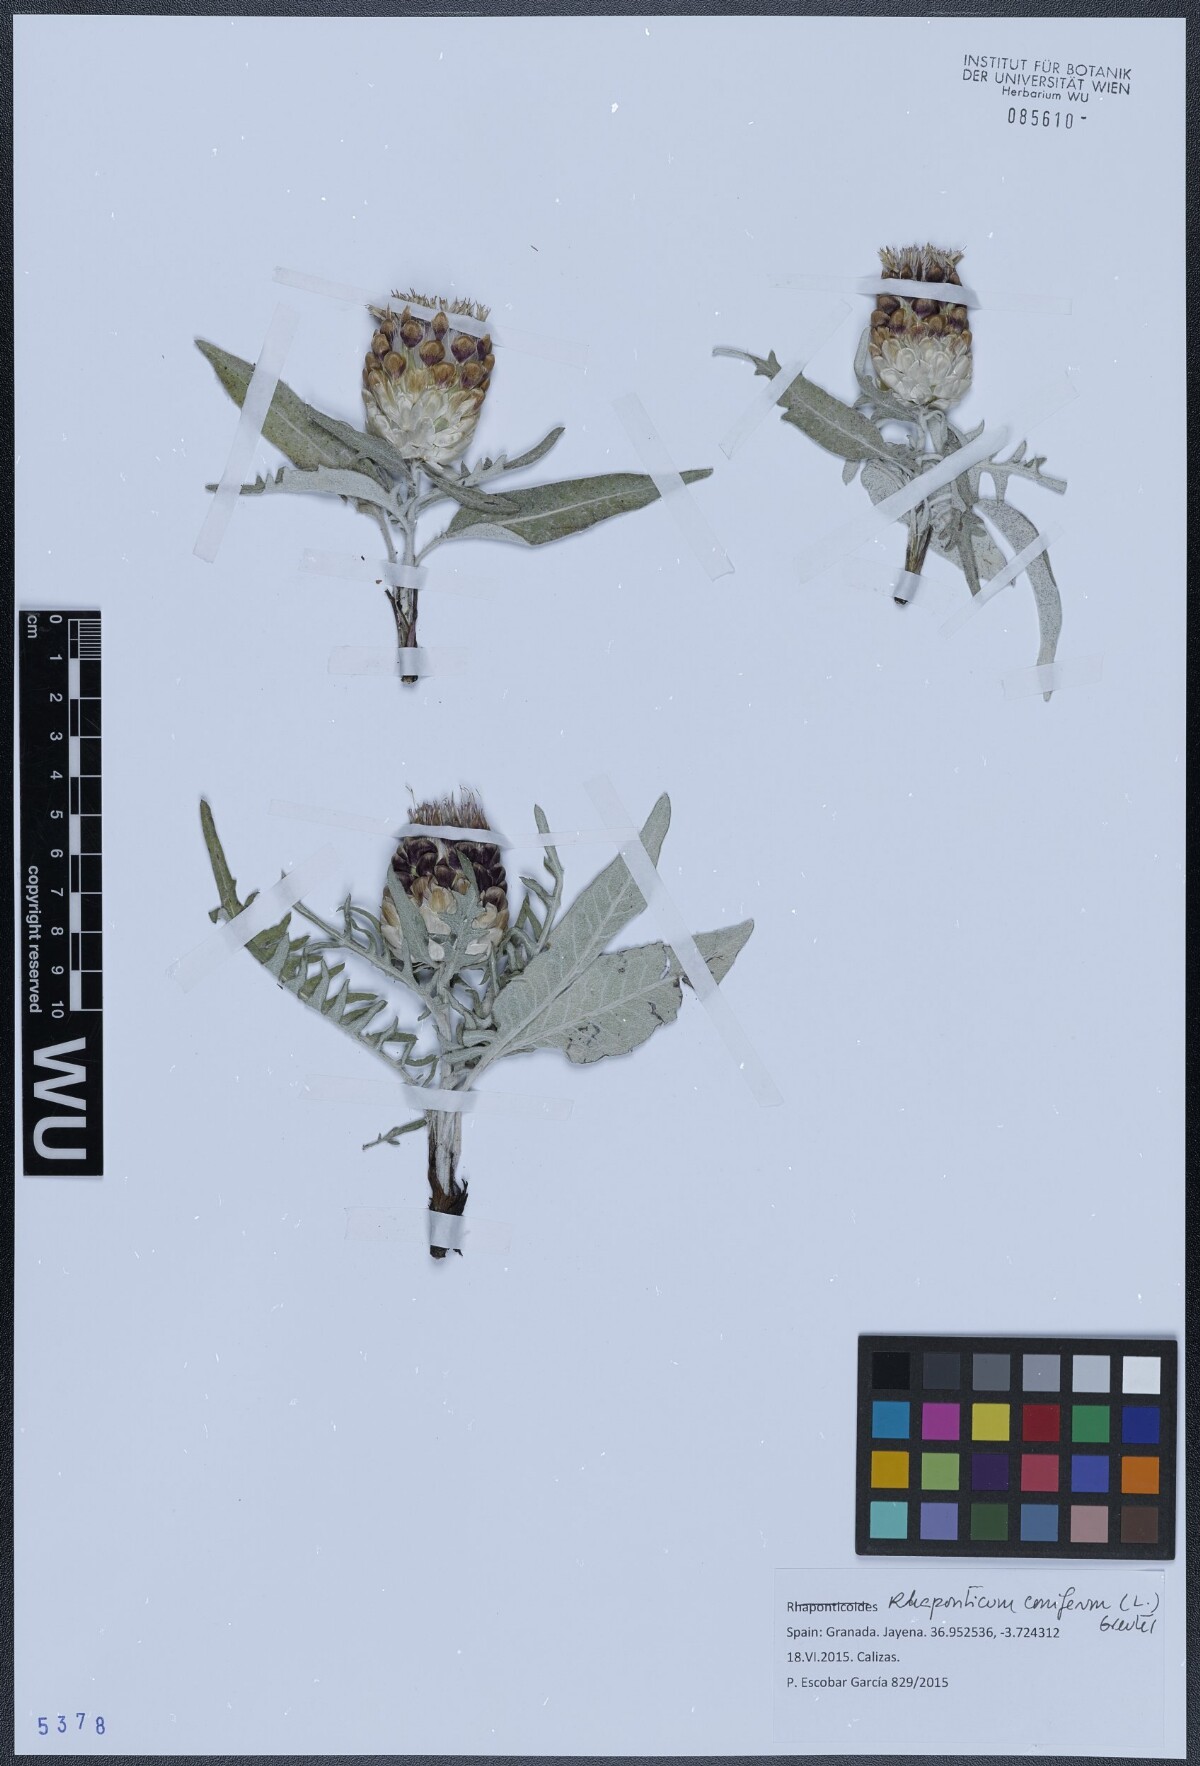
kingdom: Plantae
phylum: Tracheophyta
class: Magnoliopsida
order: Asterales
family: Asteraceae
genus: Leuzea
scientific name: Leuzea conifera
